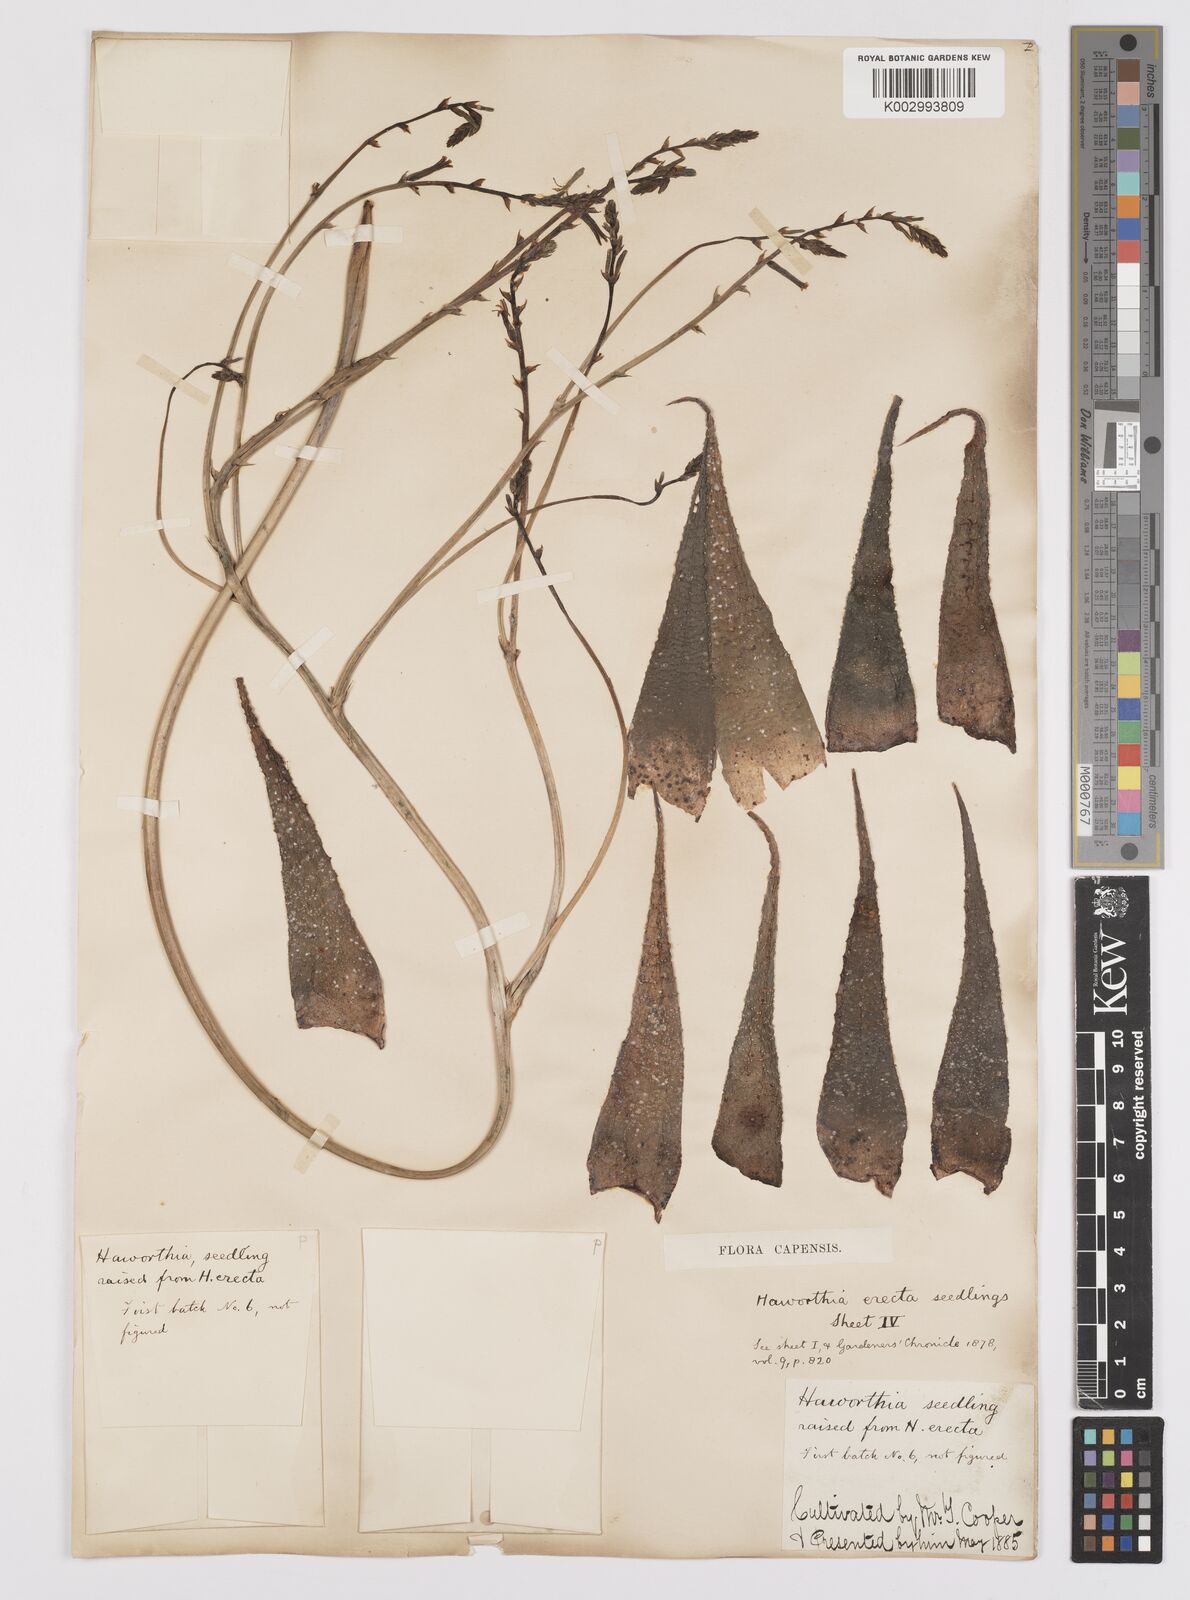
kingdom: Plantae
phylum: Tracheophyta
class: Liliopsida
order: Asparagales
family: Asphodelaceae
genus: Haworthia
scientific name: Haworthia
